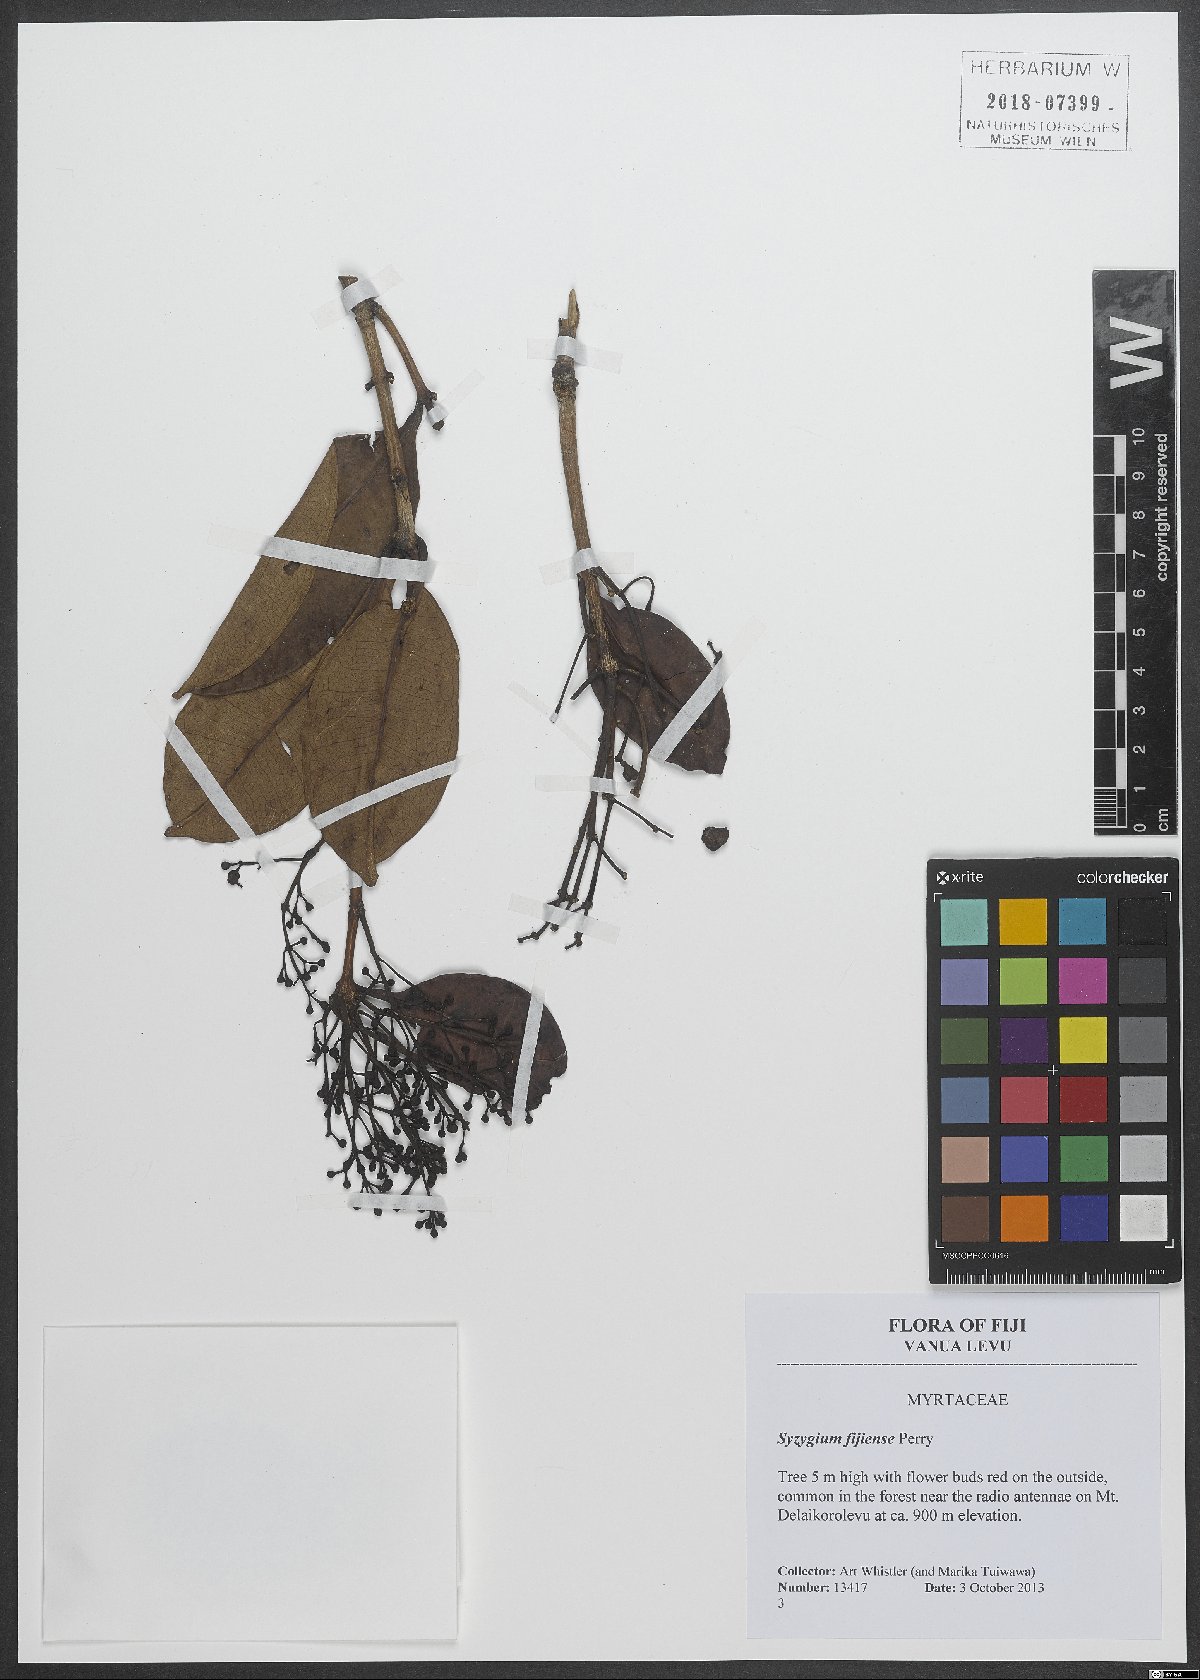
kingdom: Plantae
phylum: Tracheophyta
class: Magnoliopsida
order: Myrtales
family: Myrtaceae
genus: Syzygium
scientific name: Syzygium fijiense
